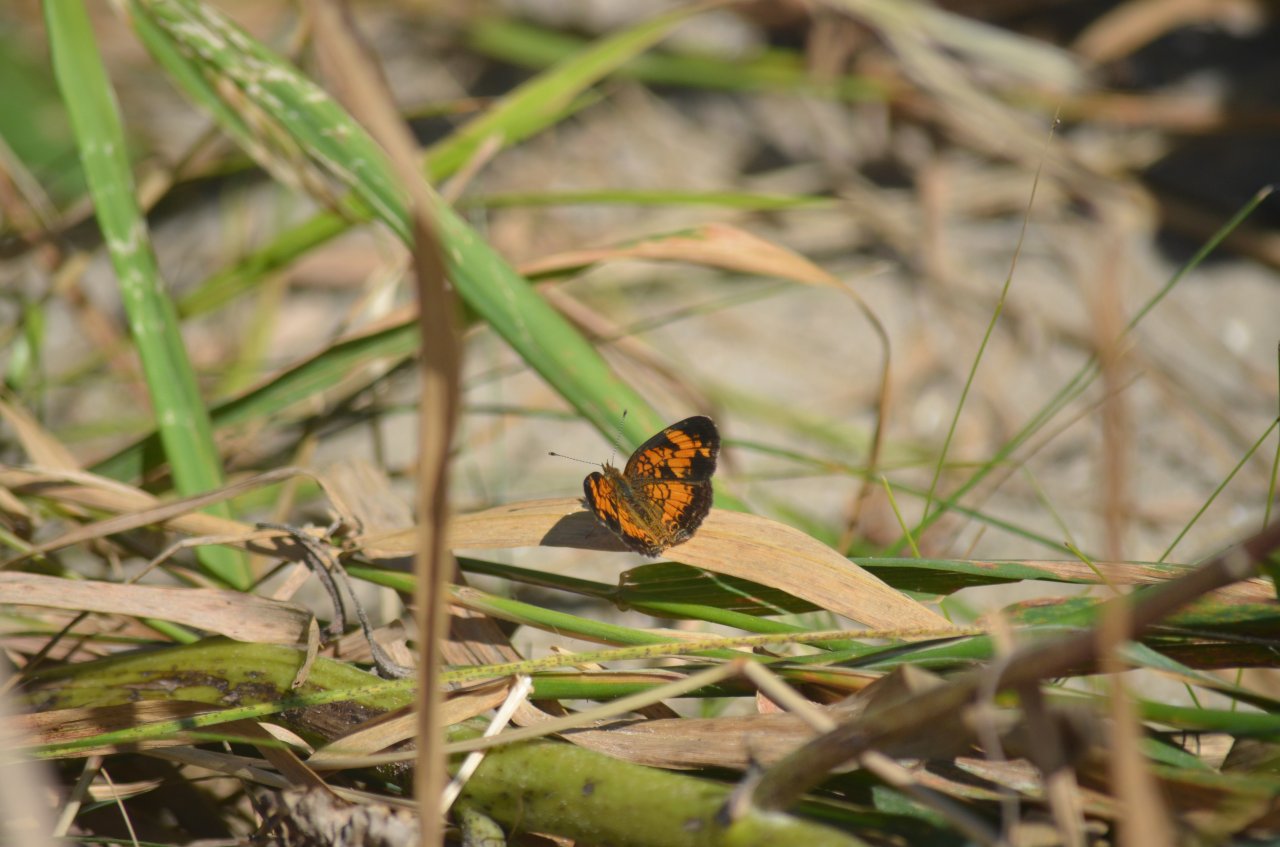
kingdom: Animalia
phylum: Arthropoda
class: Insecta
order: Lepidoptera
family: Nymphalidae
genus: Phyciodes
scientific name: Phyciodes tharos
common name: Northern Crescent
